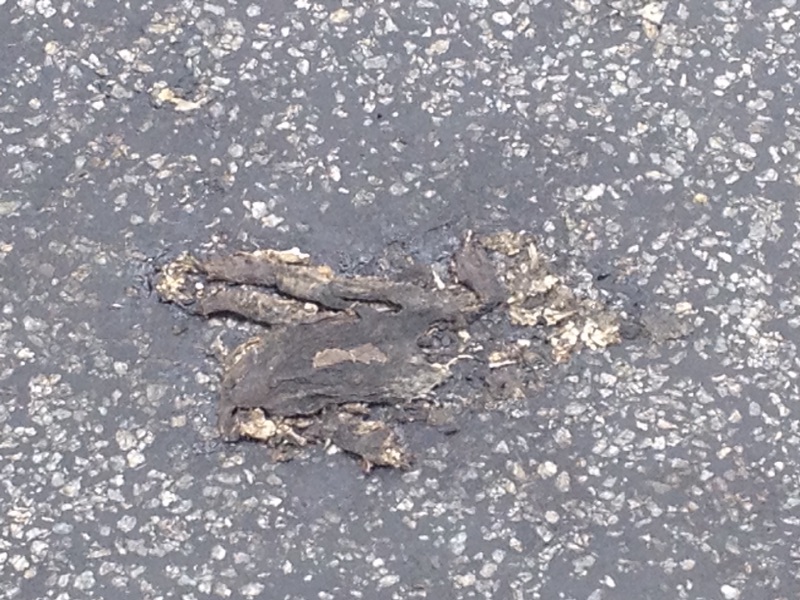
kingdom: Animalia
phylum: Chordata
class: Amphibia
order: Anura
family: Bufonidae
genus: Bufo
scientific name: Bufo bufo
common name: Common toad
